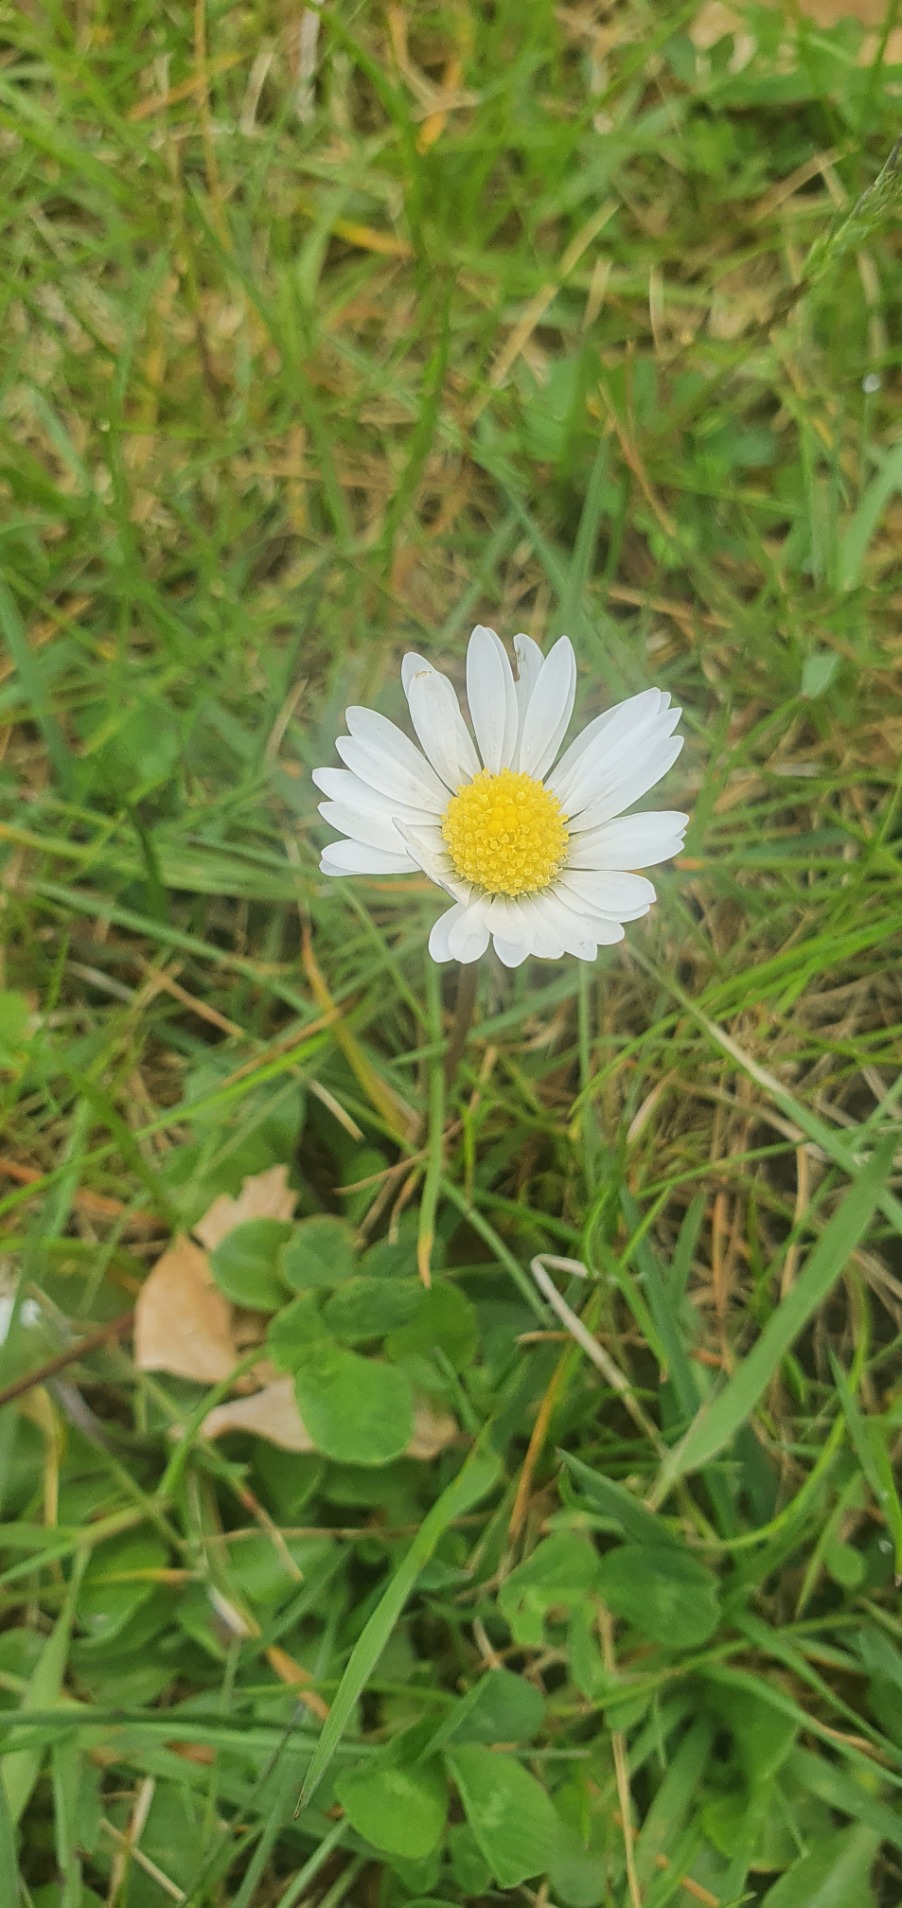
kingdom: Plantae
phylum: Tracheophyta
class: Magnoliopsida
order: Asterales
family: Asteraceae
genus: Bellis
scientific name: Bellis perennis
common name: Tusindfryd
